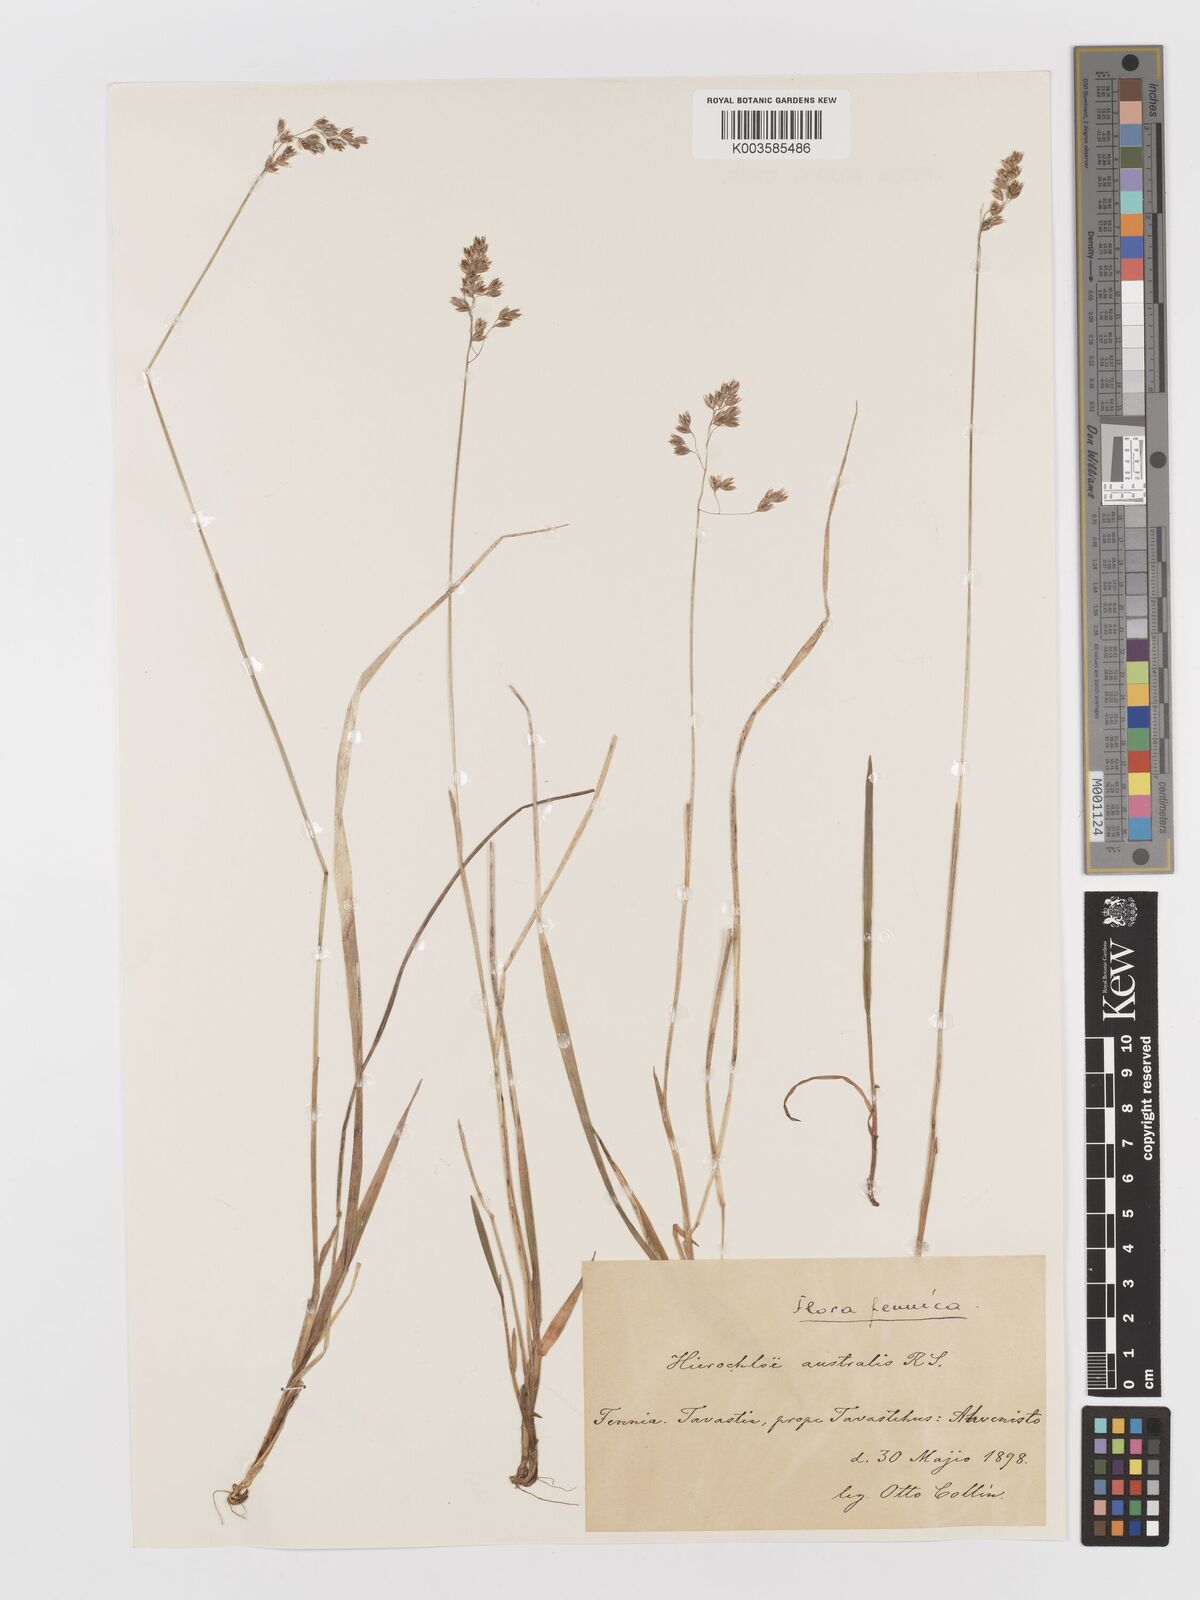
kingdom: Plantae
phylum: Tracheophyta
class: Liliopsida
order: Poales
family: Poaceae
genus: Anthoxanthum
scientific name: Anthoxanthum australe
